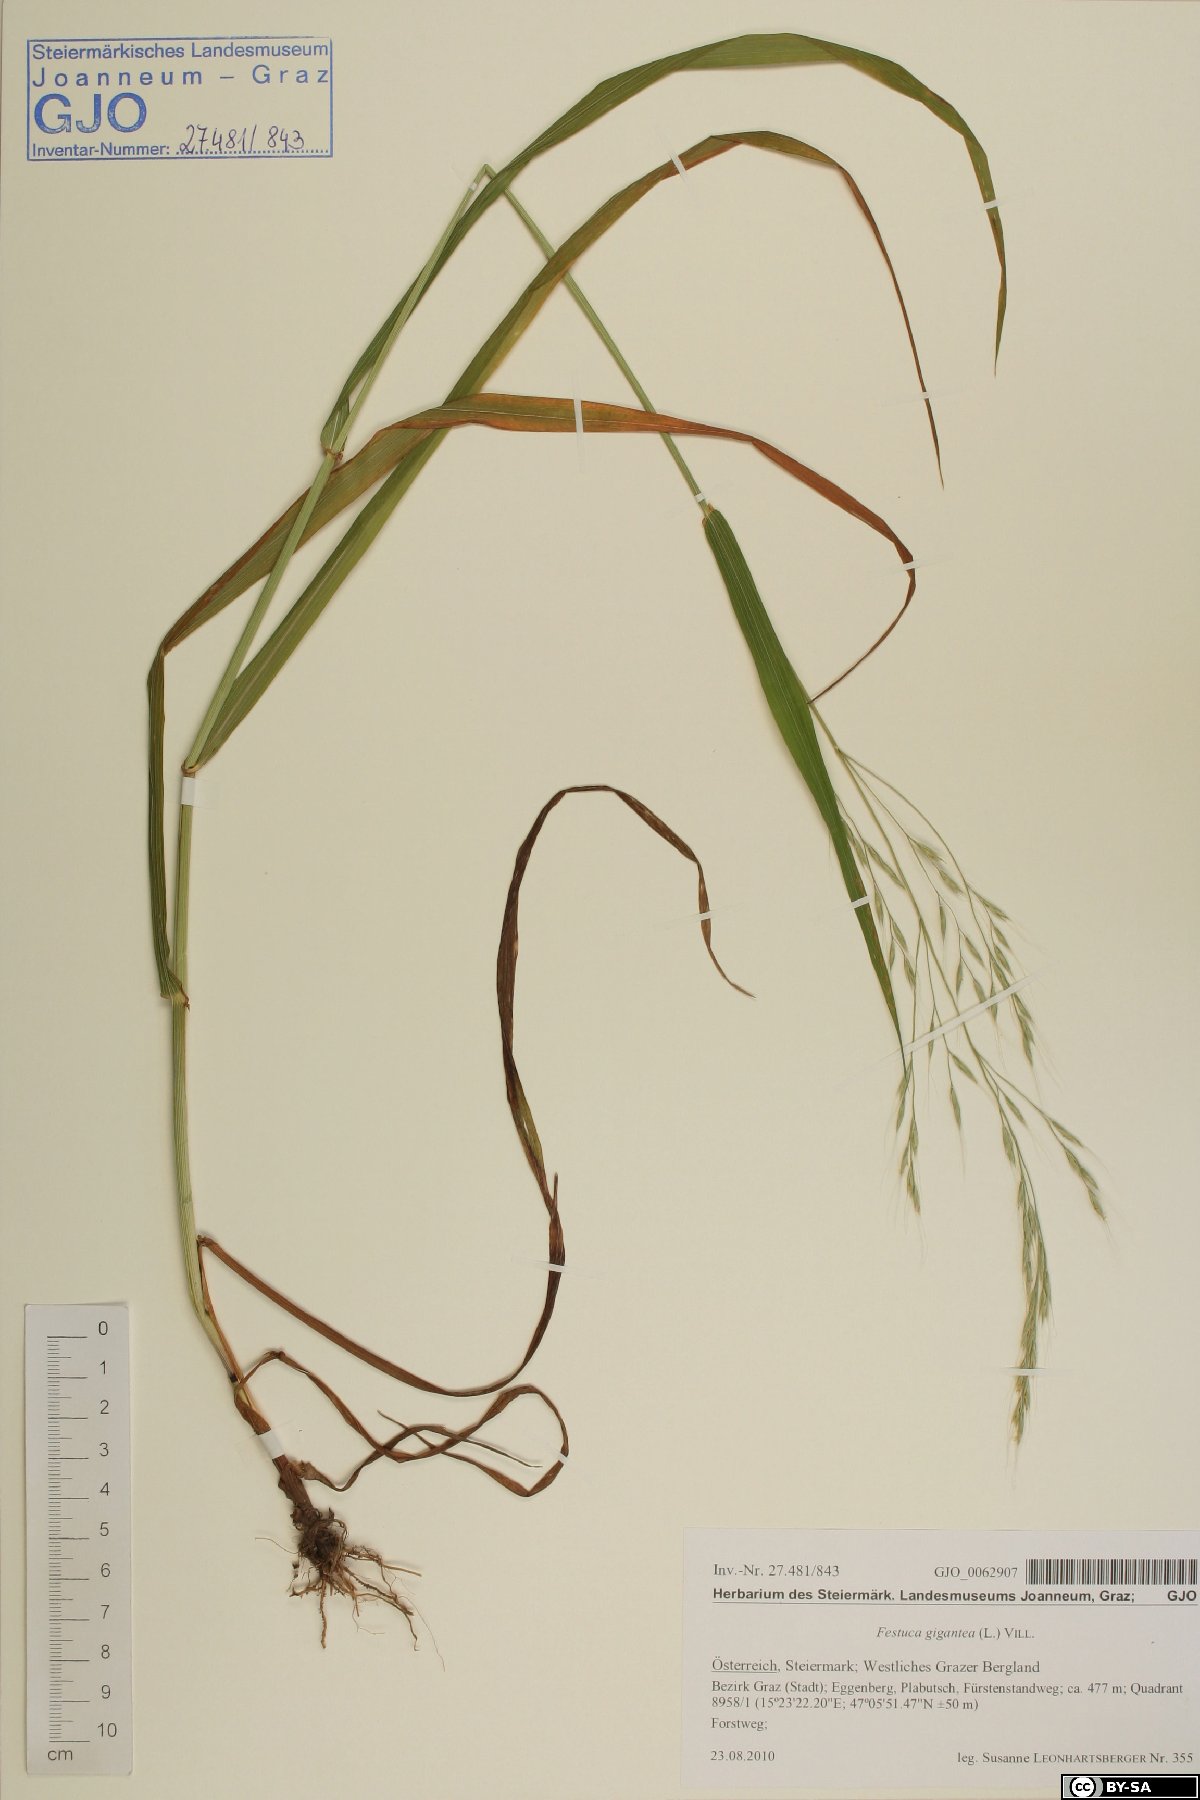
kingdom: Plantae
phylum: Tracheophyta
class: Liliopsida
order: Poales
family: Poaceae
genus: Lolium
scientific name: Lolium giganteum
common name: Giant fescue
